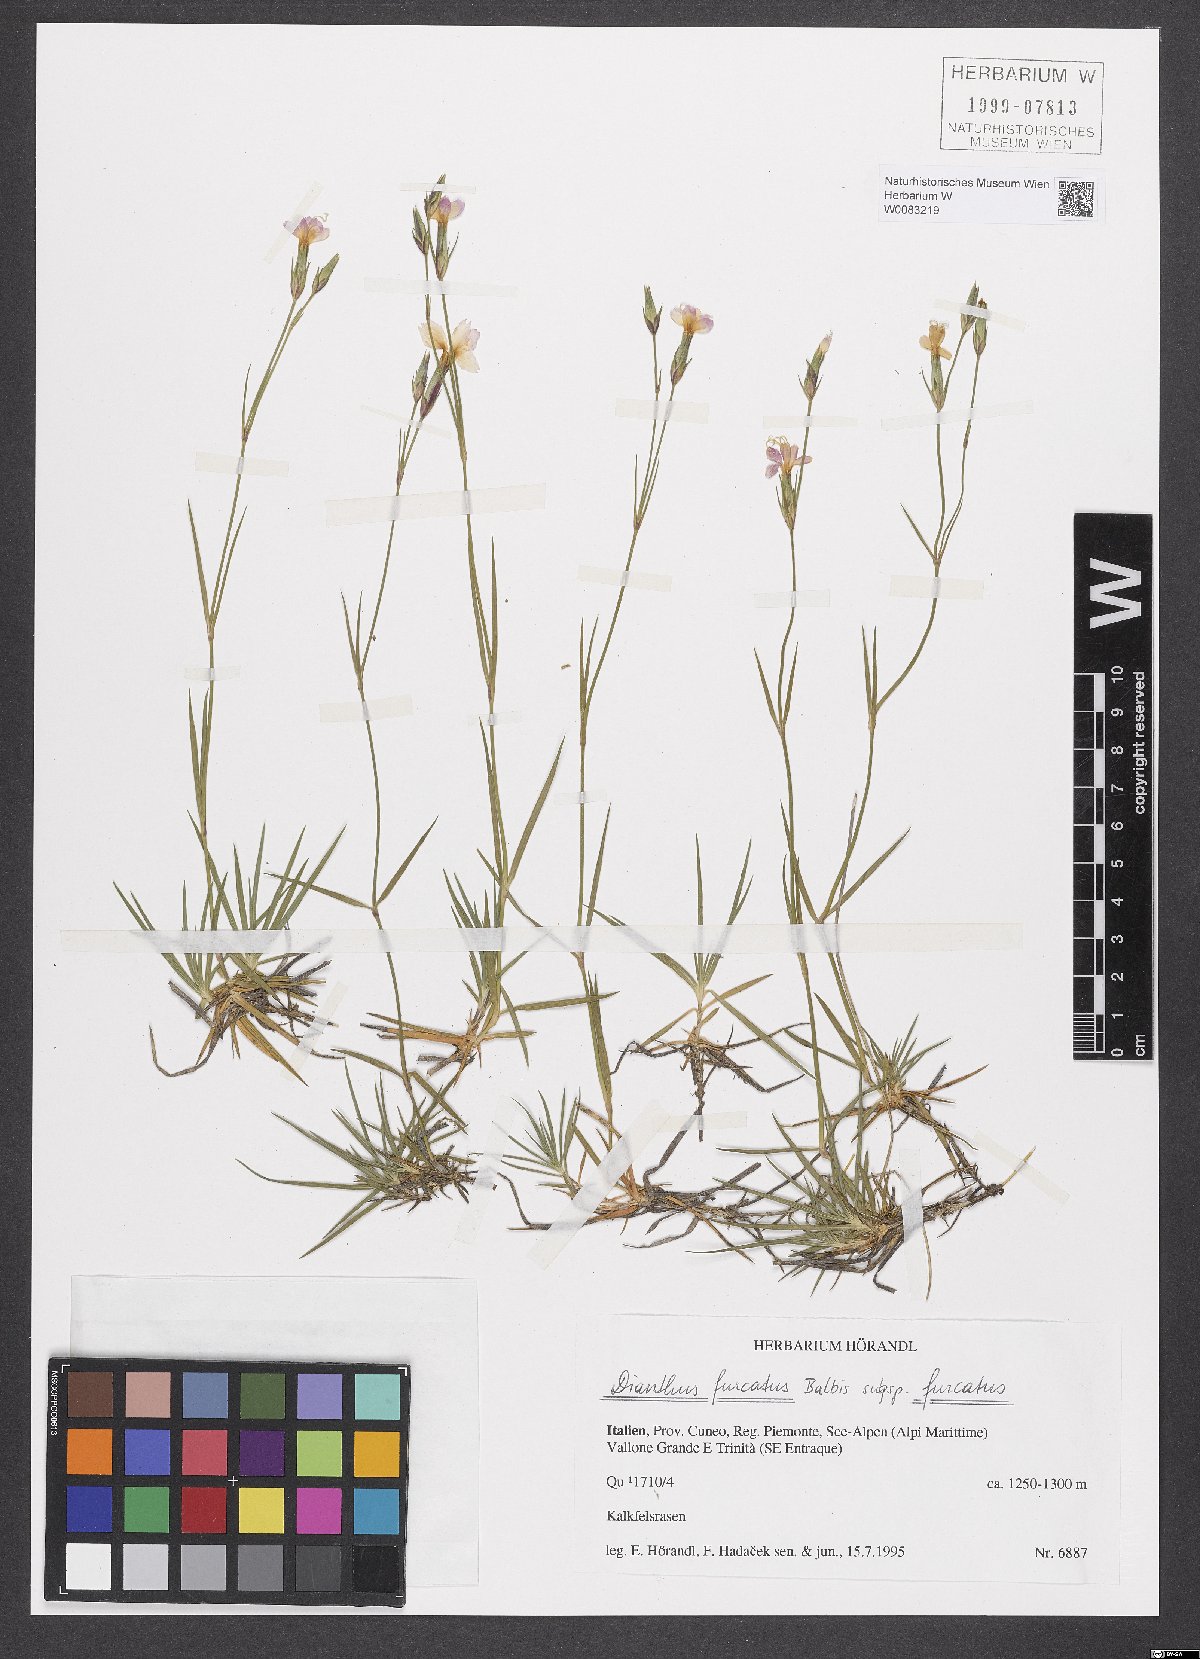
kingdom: Plantae
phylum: Tracheophyta
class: Magnoliopsida
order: Caryophyllales
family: Caryophyllaceae
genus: Dianthus
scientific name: Dianthus furcatus
